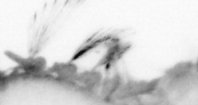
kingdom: Animalia
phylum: Annelida
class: Polychaeta
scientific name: Polychaeta
